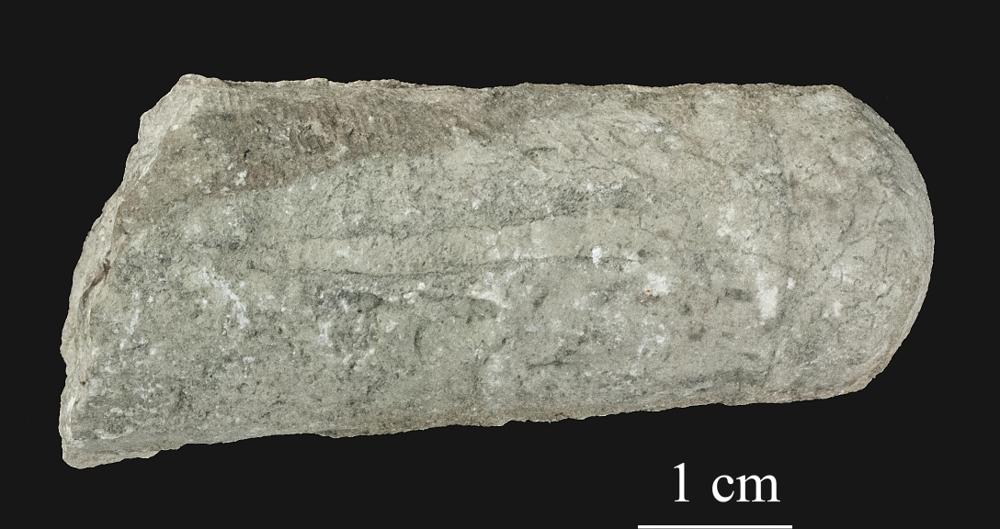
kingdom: Animalia
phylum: Mollusca
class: Cephalopoda
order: Orthocerida
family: Orthoceratidae
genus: Orthoceras
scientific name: Orthoceras
